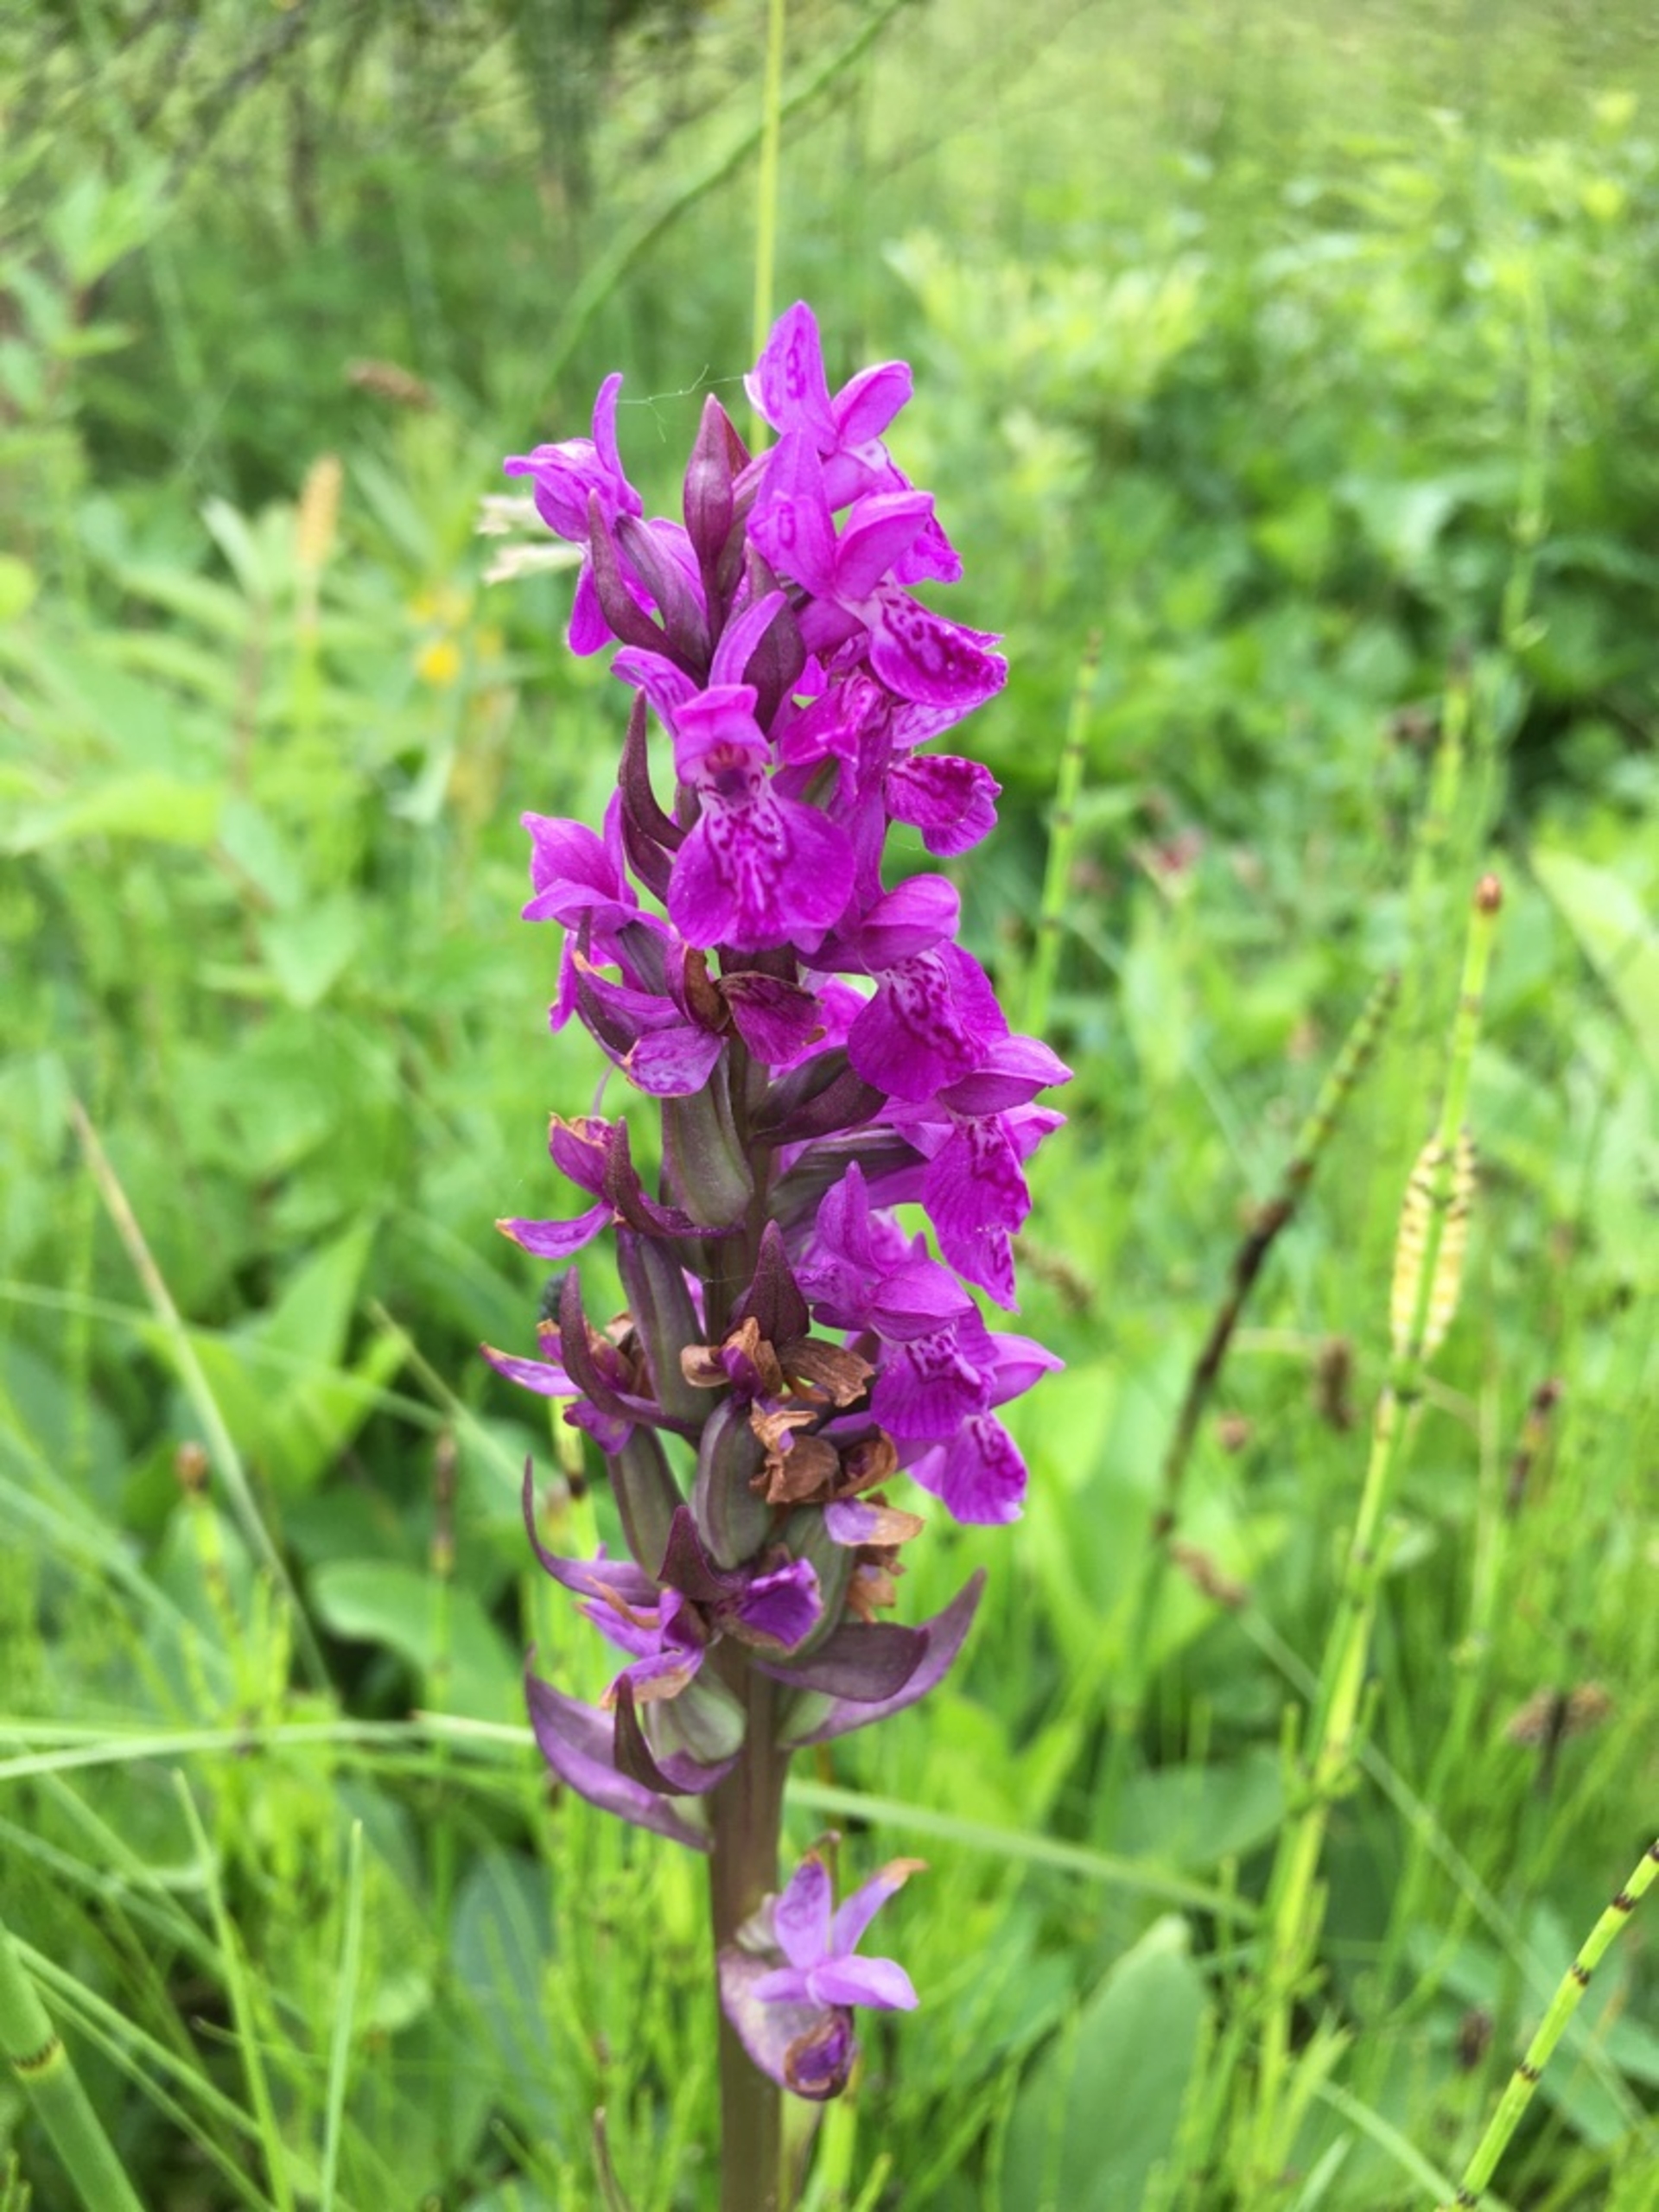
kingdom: Plantae
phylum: Tracheophyta
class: Liliopsida
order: Asparagales
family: Orchidaceae
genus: Dactylorhiza
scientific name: Dactylorhiza majalis
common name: Maj-gøgeurt
